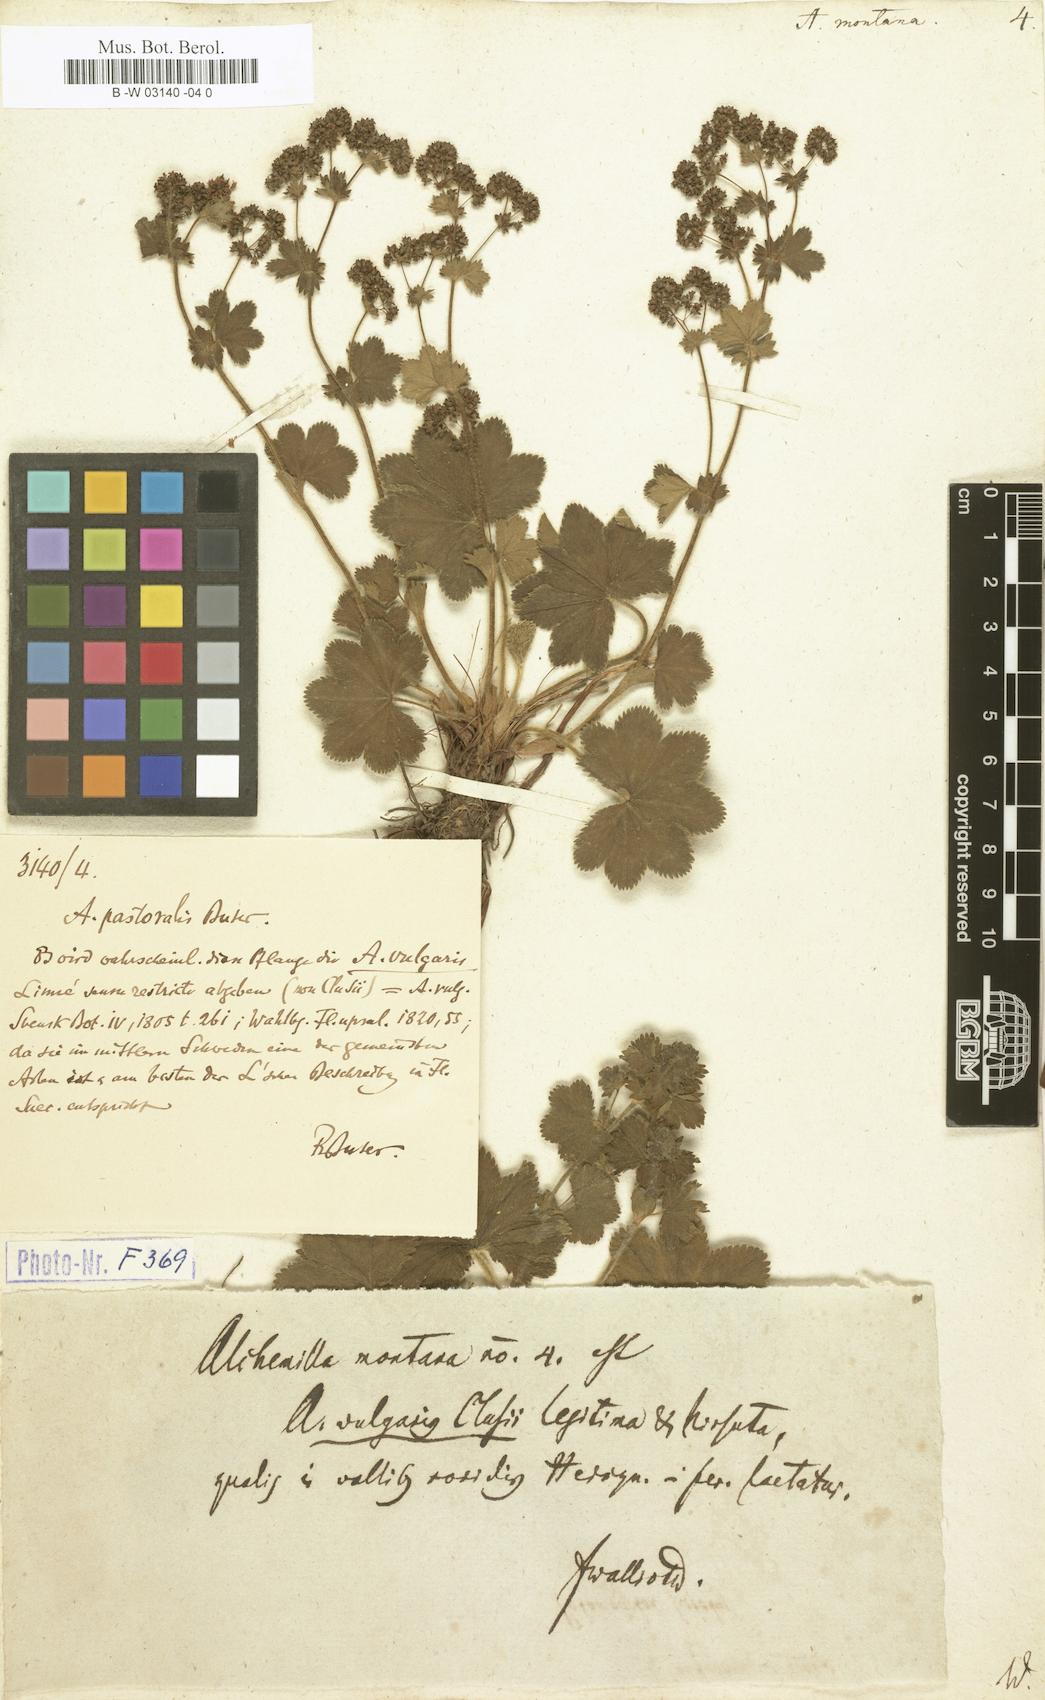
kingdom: Plantae
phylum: Tracheophyta
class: Magnoliopsida
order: Rosales
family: Rosaceae
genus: Alchemilla
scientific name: Alchemilla connivens
